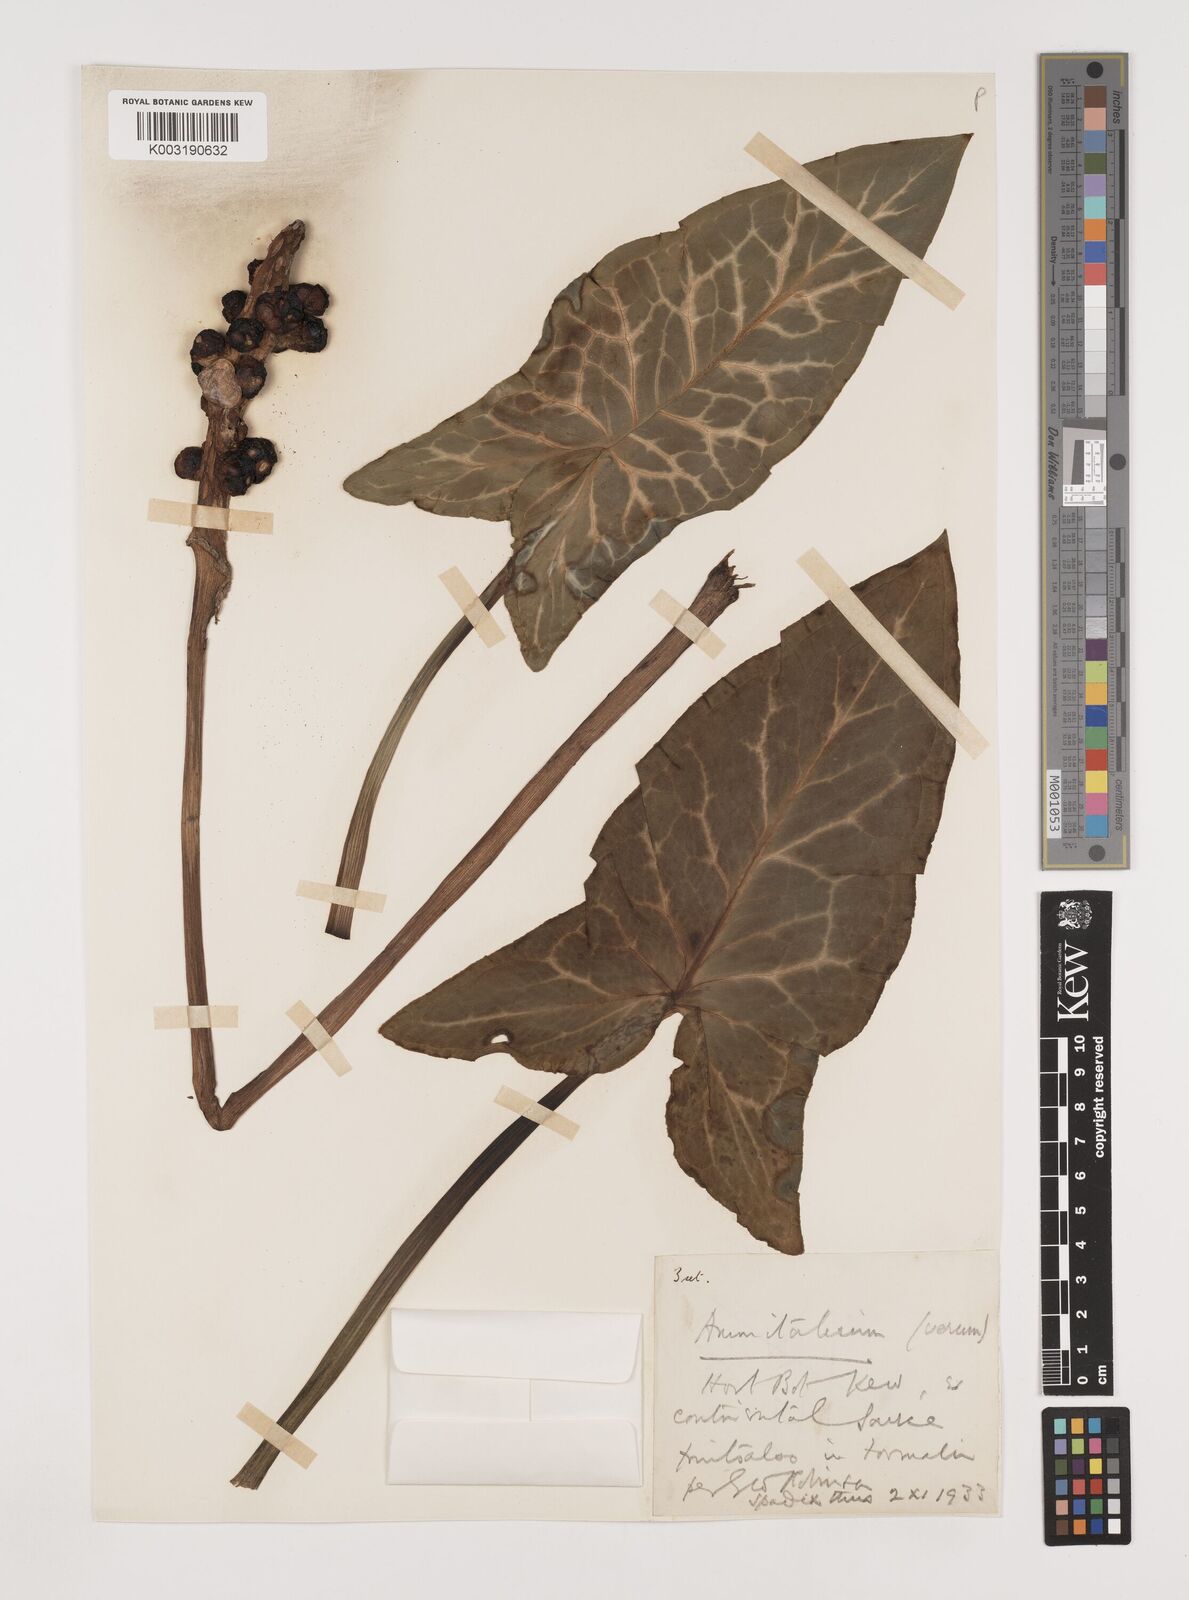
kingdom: Plantae
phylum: Tracheophyta
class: Liliopsida
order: Alismatales
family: Araceae
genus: Arum
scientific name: Arum italicum
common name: Italian lords-and-ladies
